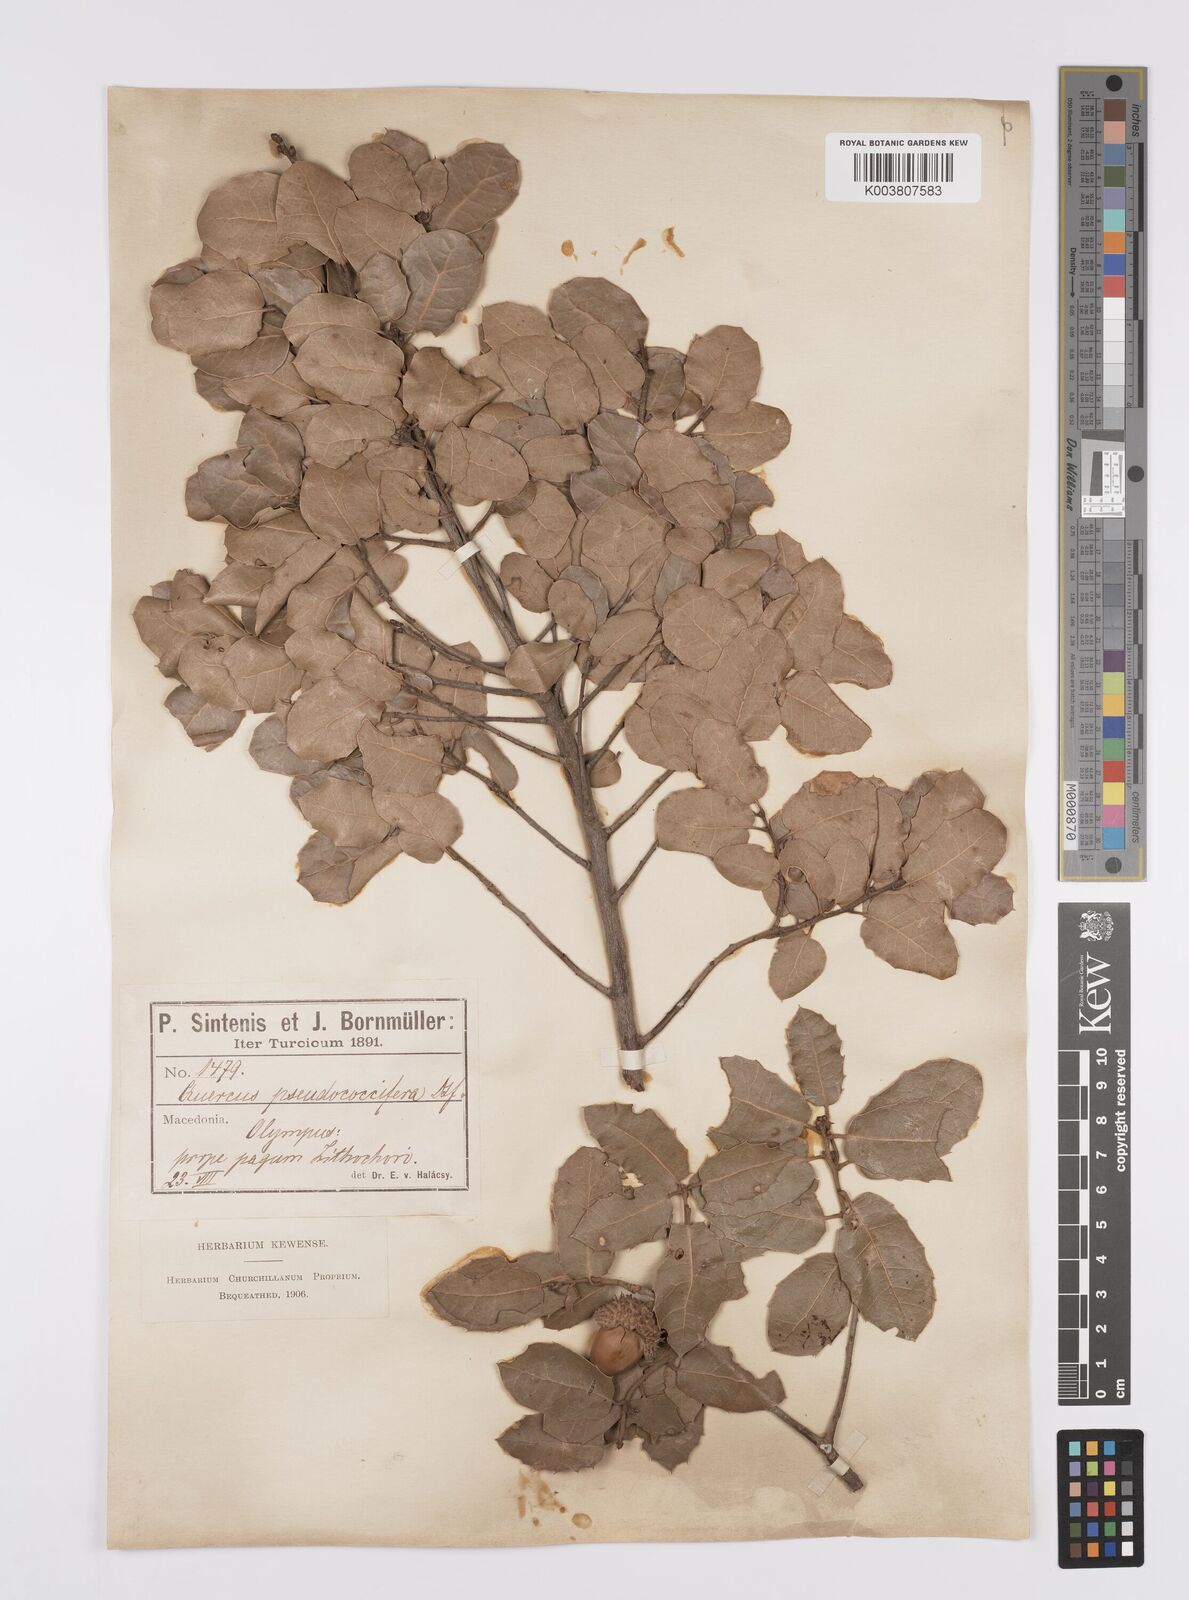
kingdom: Plantae
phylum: Tracheophyta
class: Magnoliopsida
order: Fagales
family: Fagaceae
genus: Quercus
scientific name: Quercus coccifera
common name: Kermes oak
